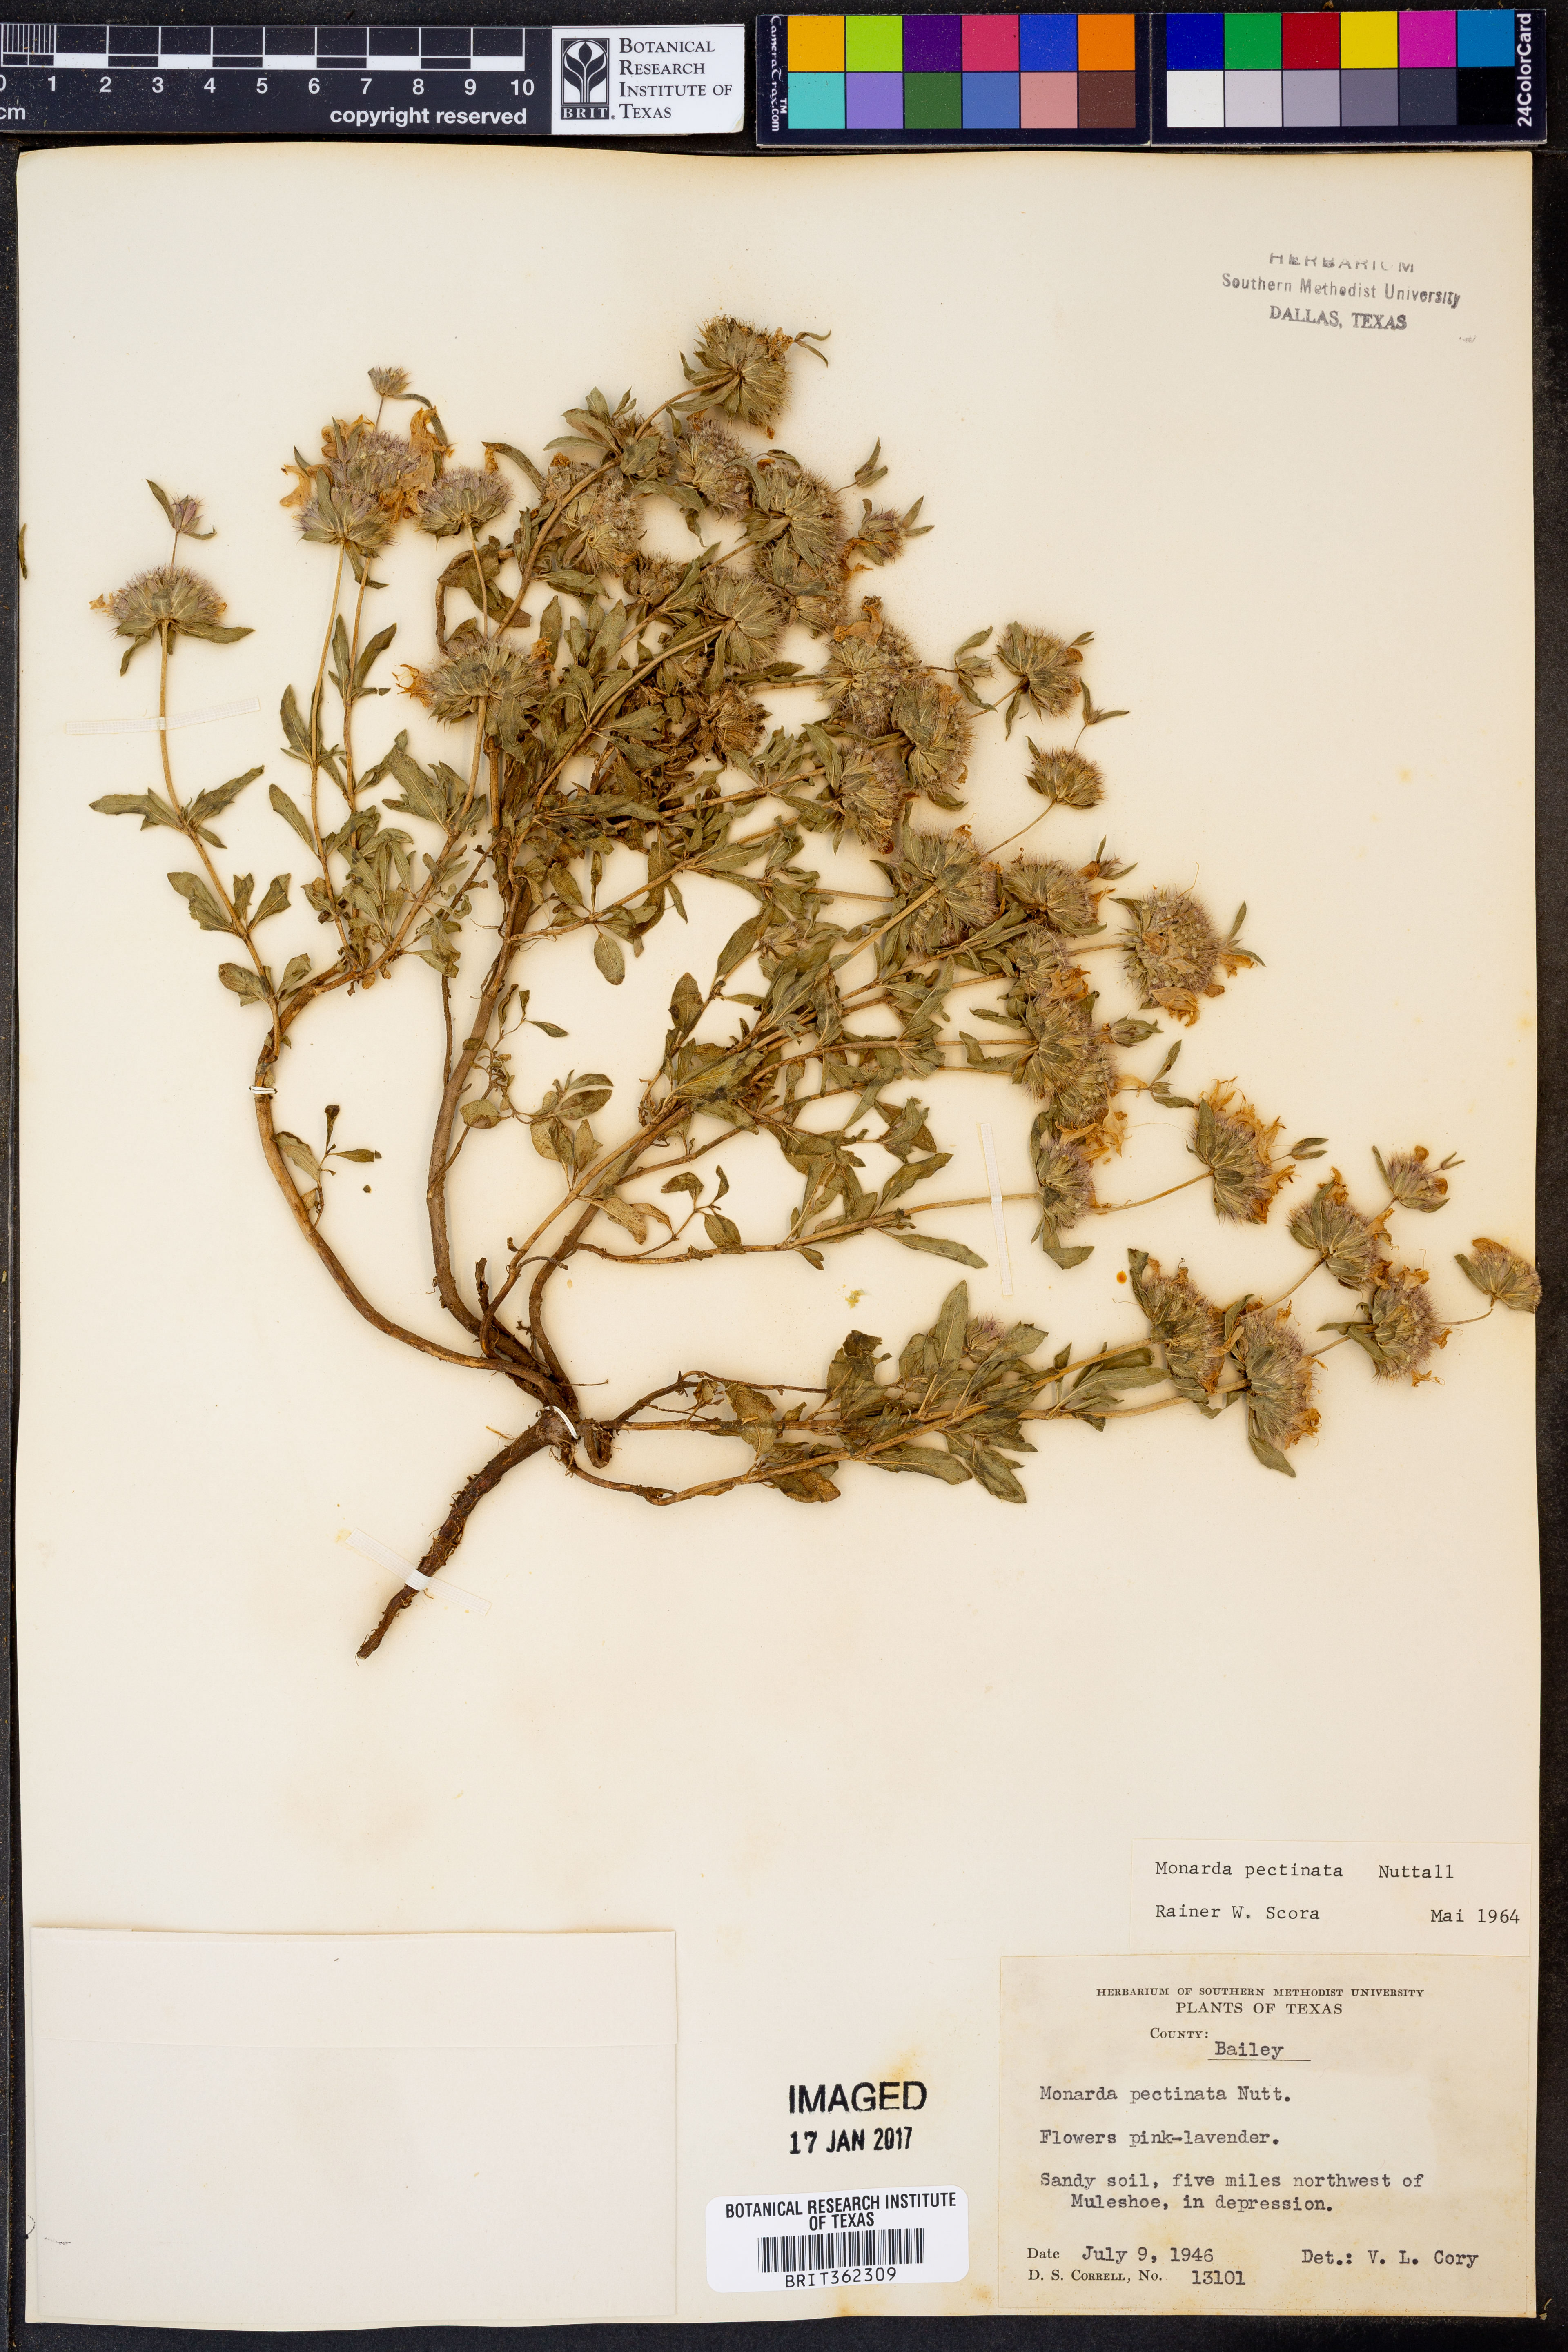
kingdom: Plantae
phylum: Tracheophyta
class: Magnoliopsida
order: Lamiales
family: Lamiaceae
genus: Monarda
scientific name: Monarda pectinata
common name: Plains beebalm
